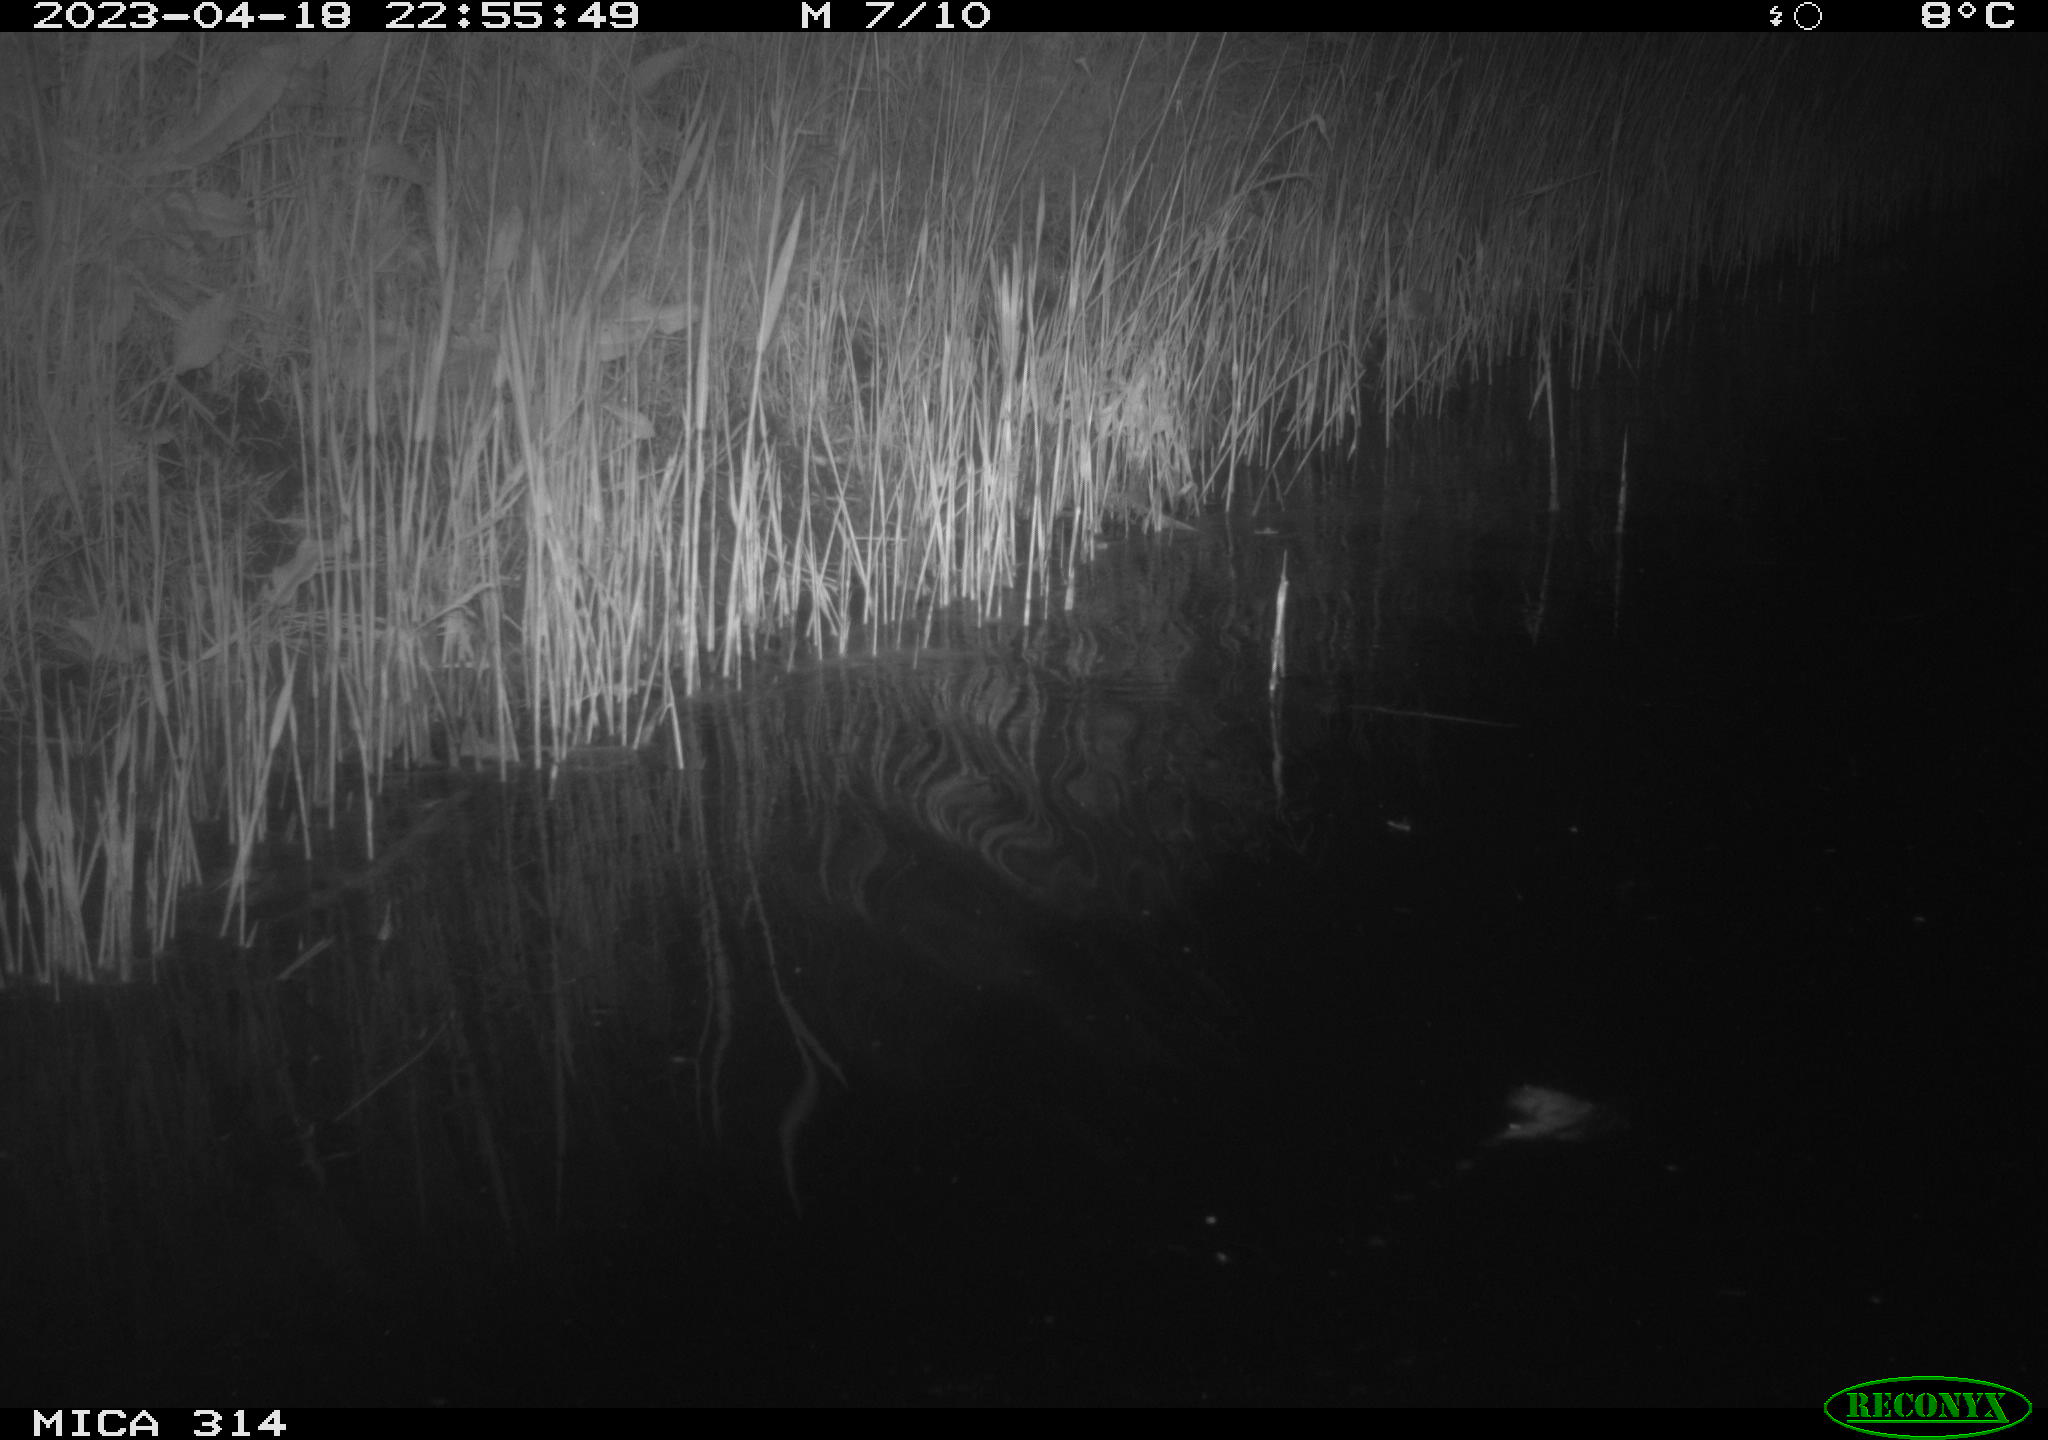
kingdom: Animalia
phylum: Chordata
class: Aves
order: Anseriformes
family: Anatidae
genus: Anas
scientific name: Anas
